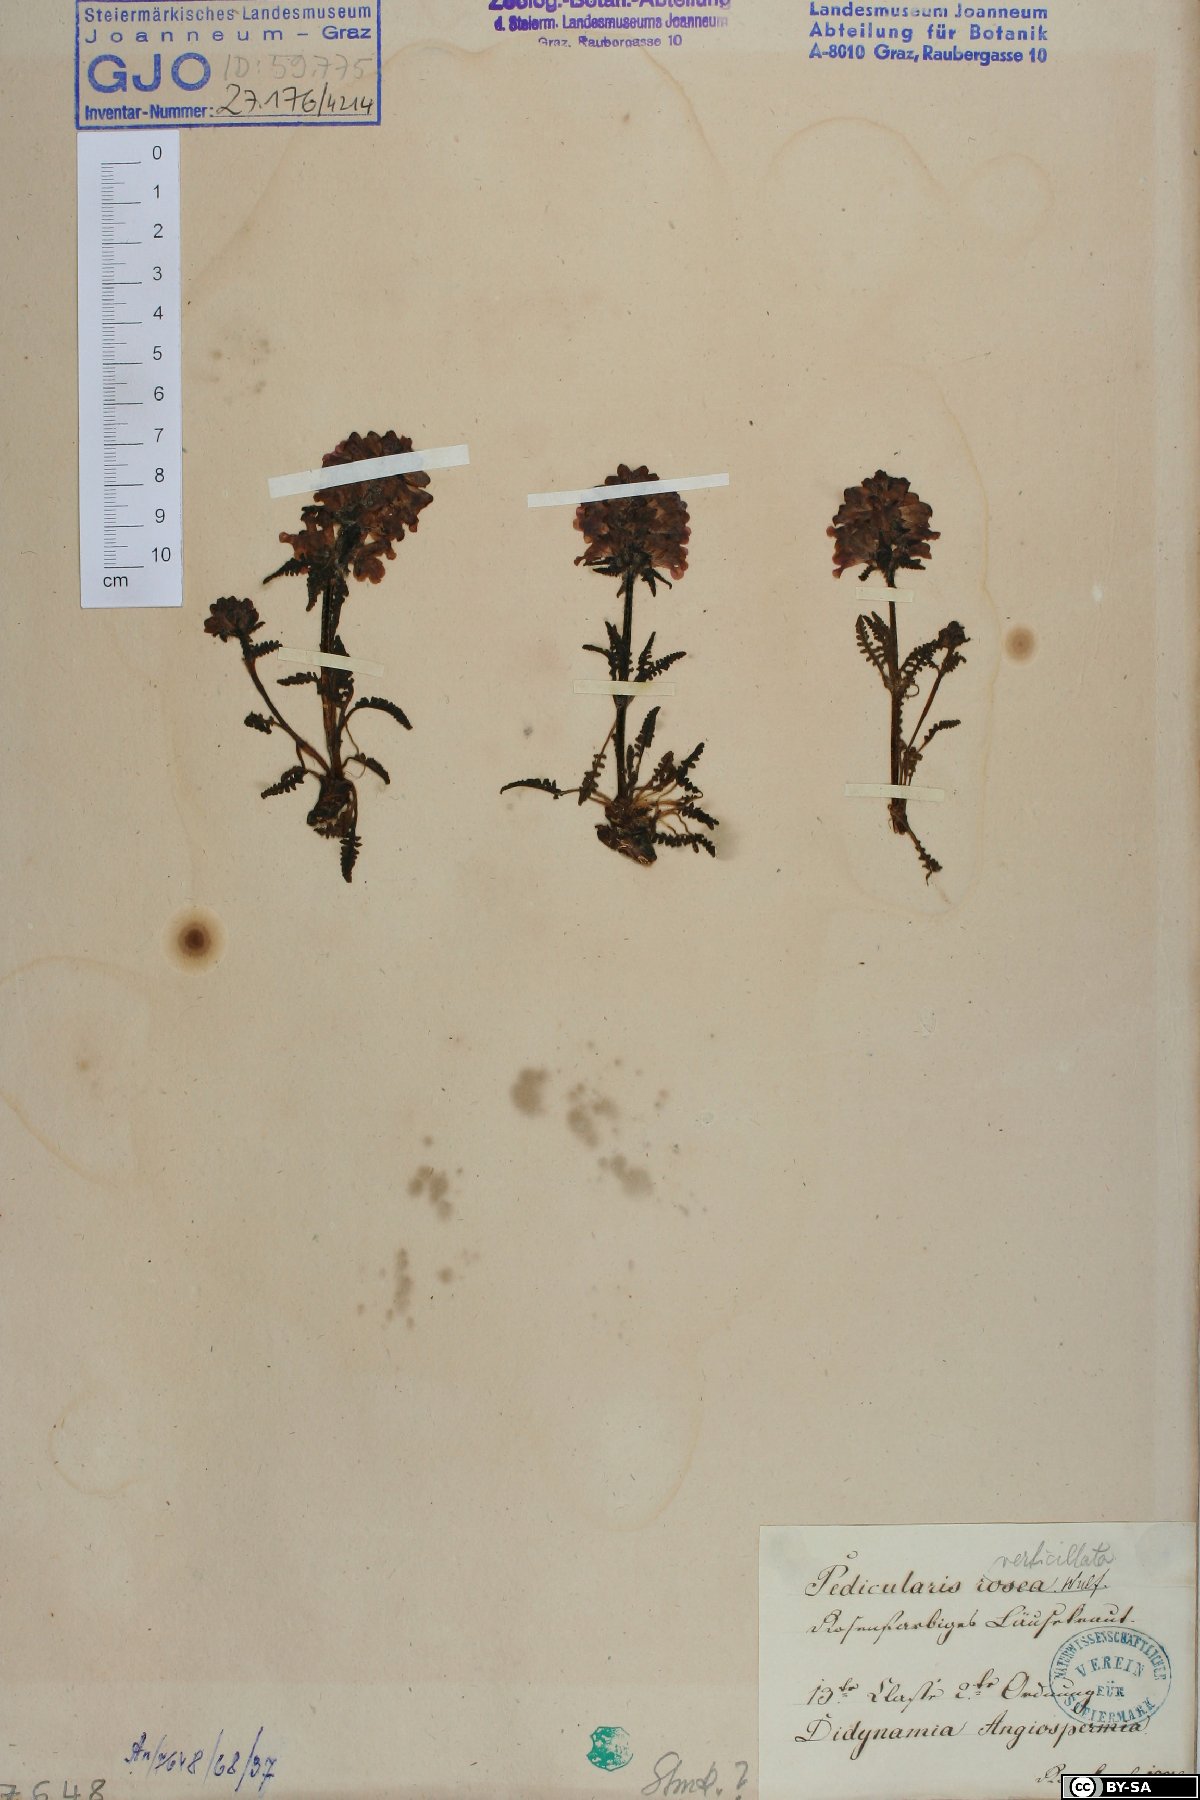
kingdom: Plantae
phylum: Tracheophyta
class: Magnoliopsida
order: Lamiales
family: Orobanchaceae
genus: Pedicularis
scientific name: Pedicularis verticillata
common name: Whorled lousewort
